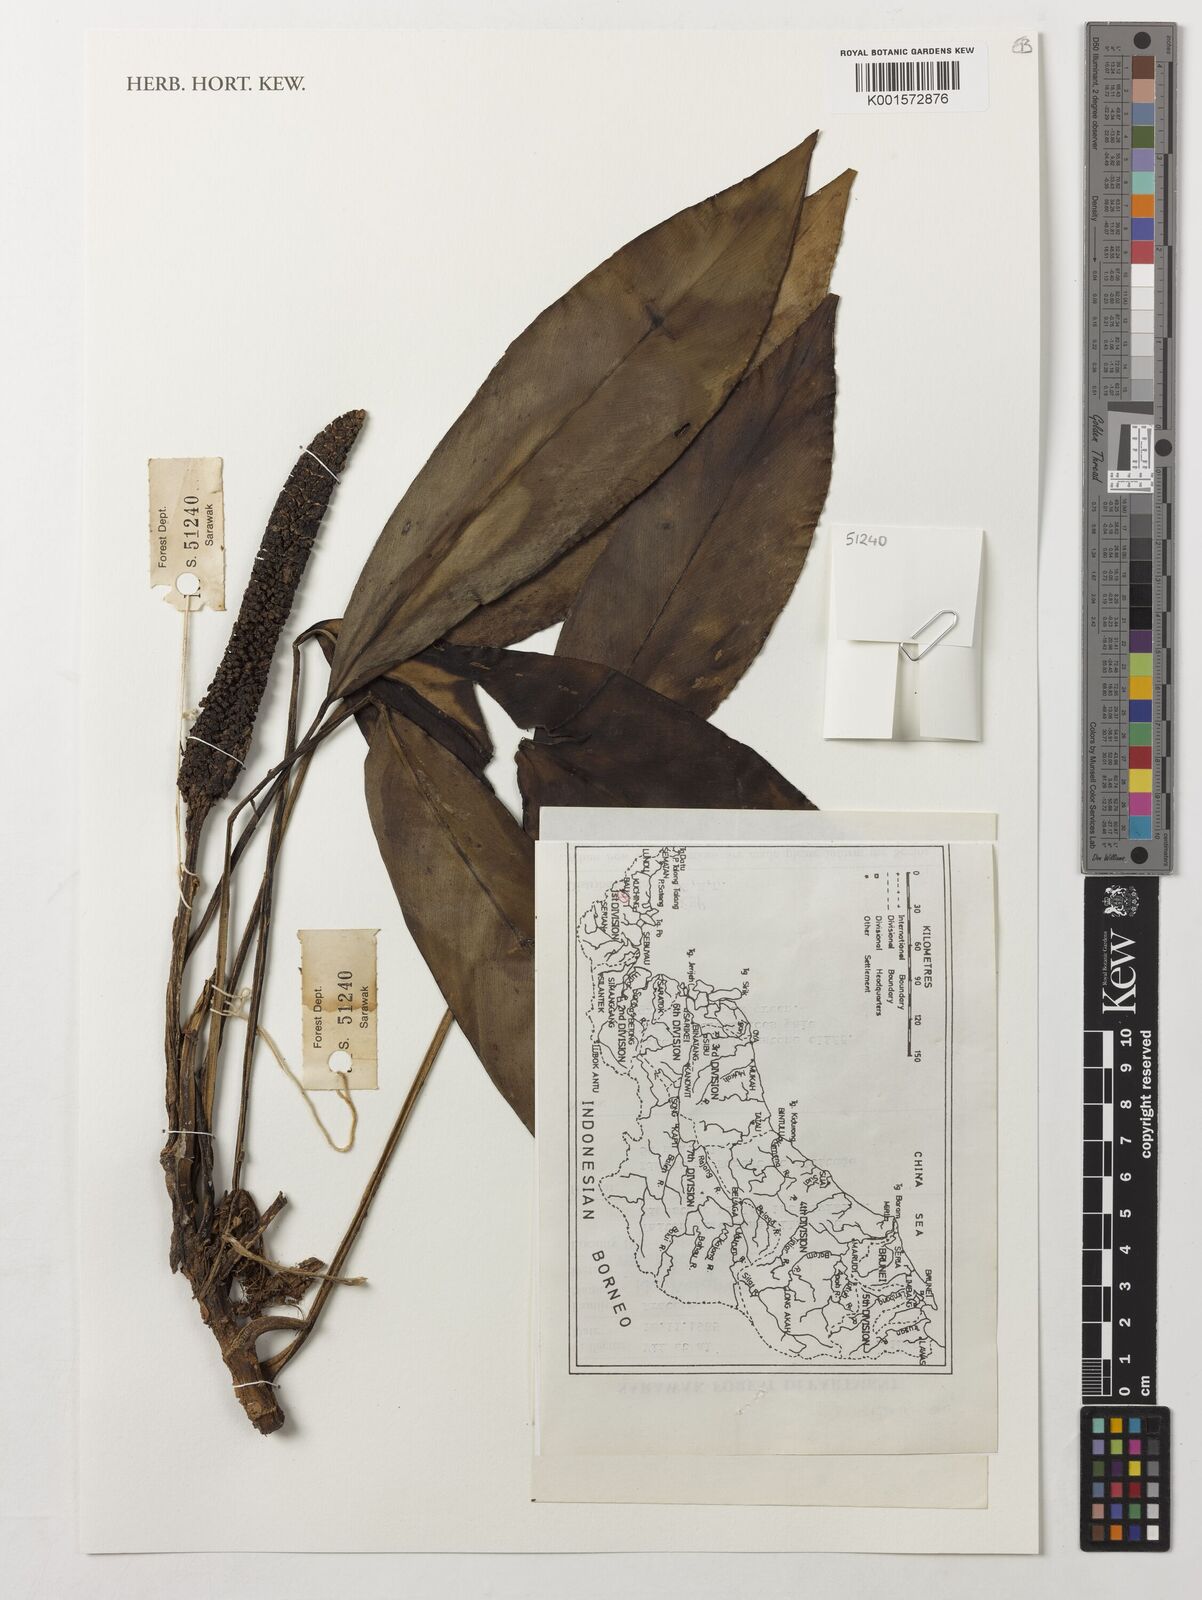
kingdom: Plantae
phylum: Tracheophyta
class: Liliopsida
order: Alismatales
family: Araceae
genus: Rhaphidophora
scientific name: Rhaphidophora elliptica
